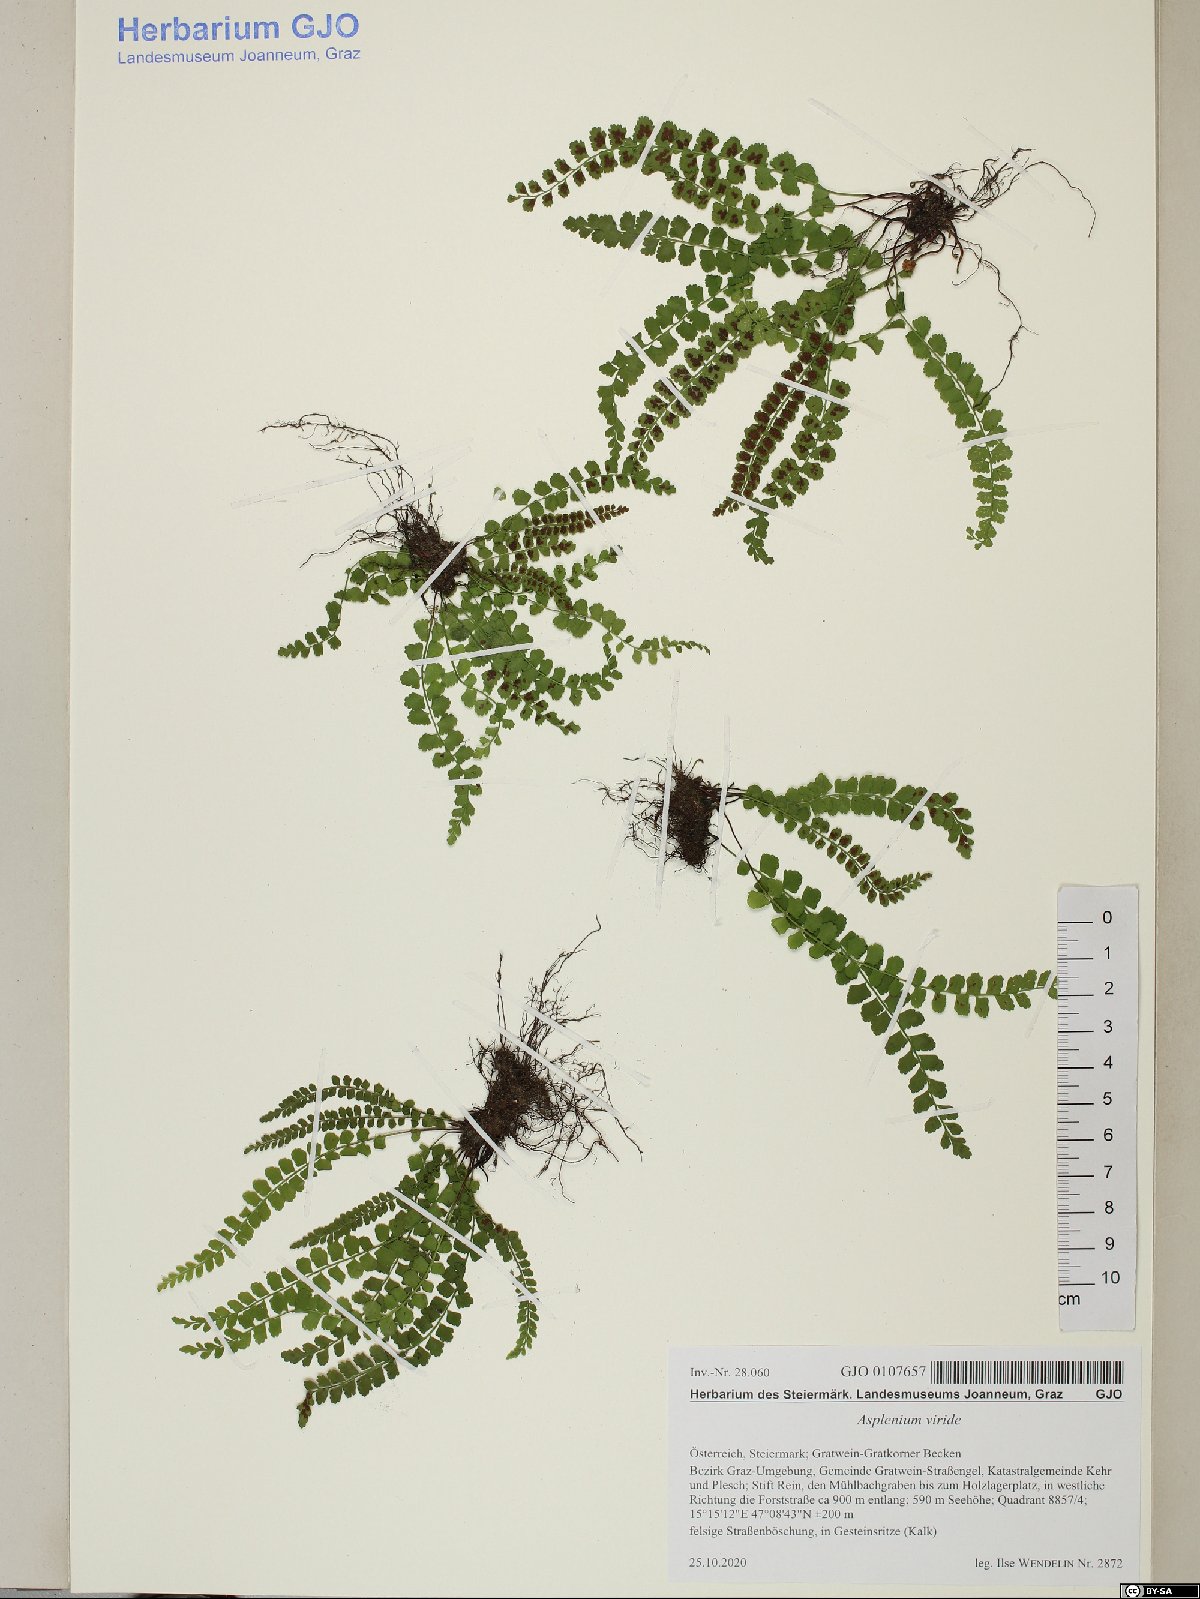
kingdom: Plantae
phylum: Tracheophyta
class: Polypodiopsida
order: Polypodiales
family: Aspleniaceae
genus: Asplenium
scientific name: Asplenium viride
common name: Green spleenwort
